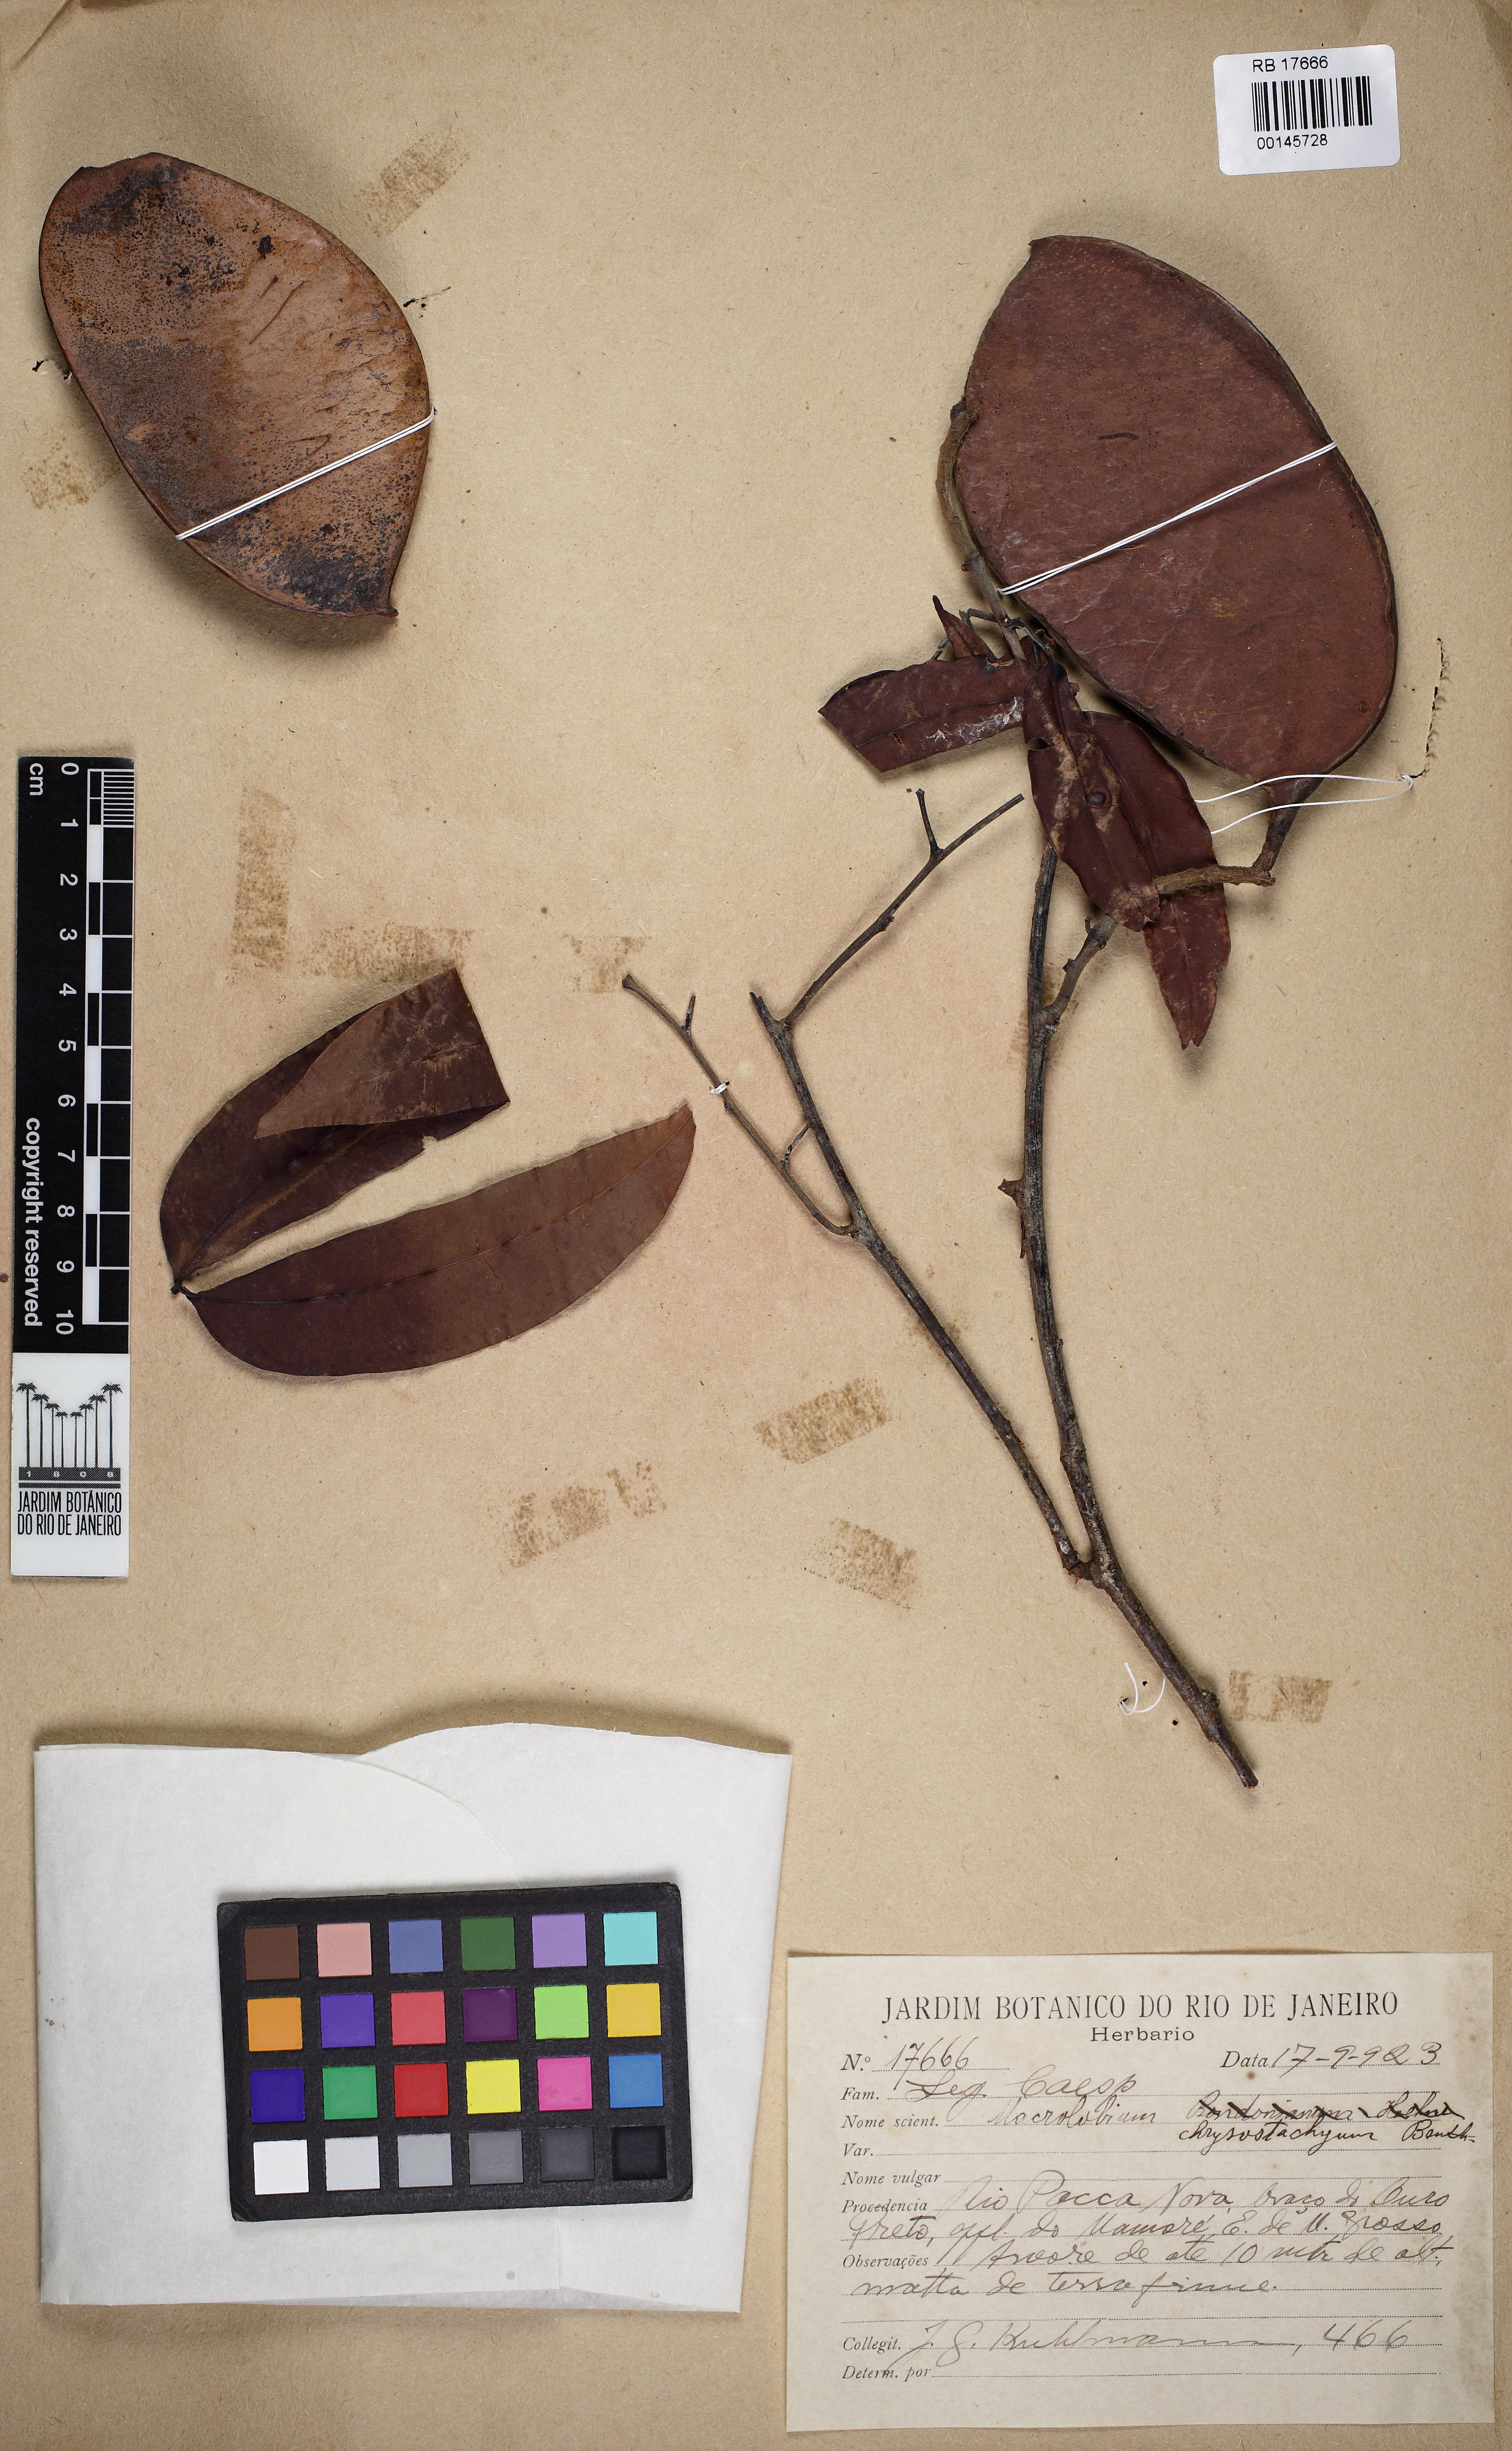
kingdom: Plantae
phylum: Tracheophyta
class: Magnoliopsida
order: Fabales
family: Fabaceae
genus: Macrolobium
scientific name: Macrolobium angustifolium
